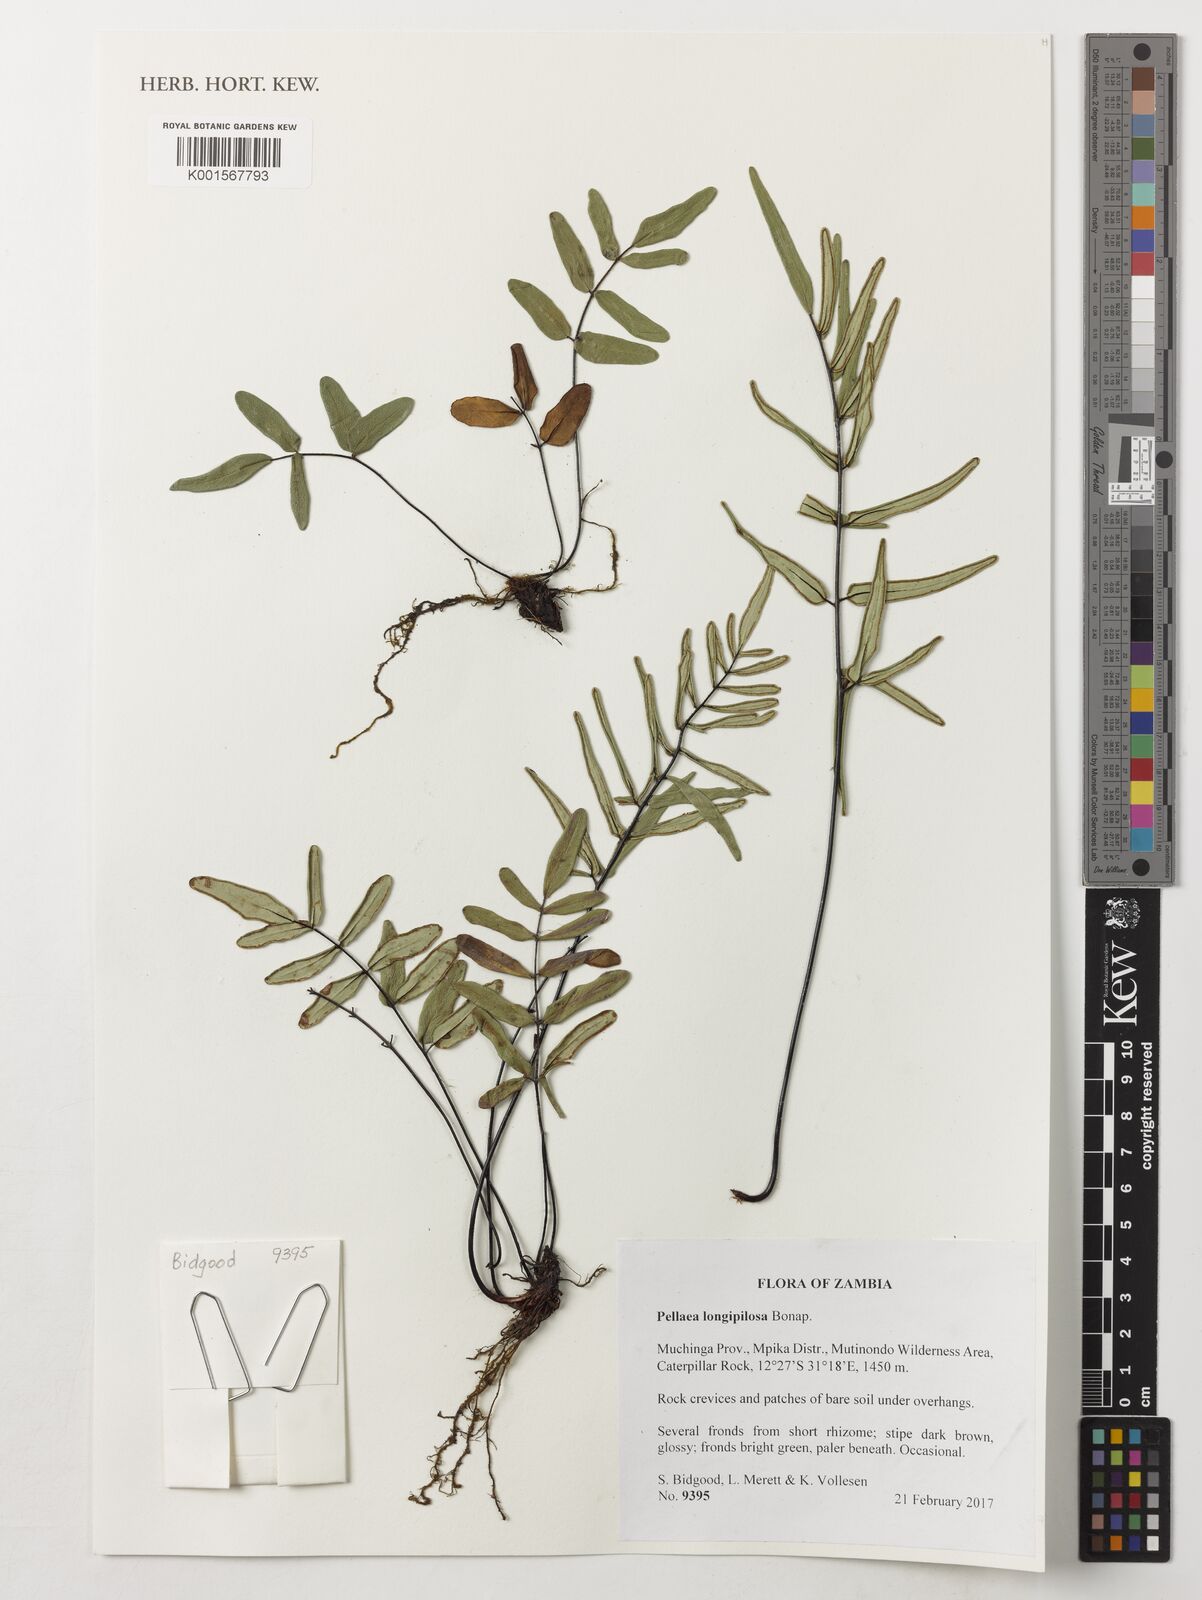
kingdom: Plantae
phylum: Tracheophyta
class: Polypodiopsida
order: Polypodiales
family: Pteridaceae
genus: Pellaea
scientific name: Pellaea longipilosa
